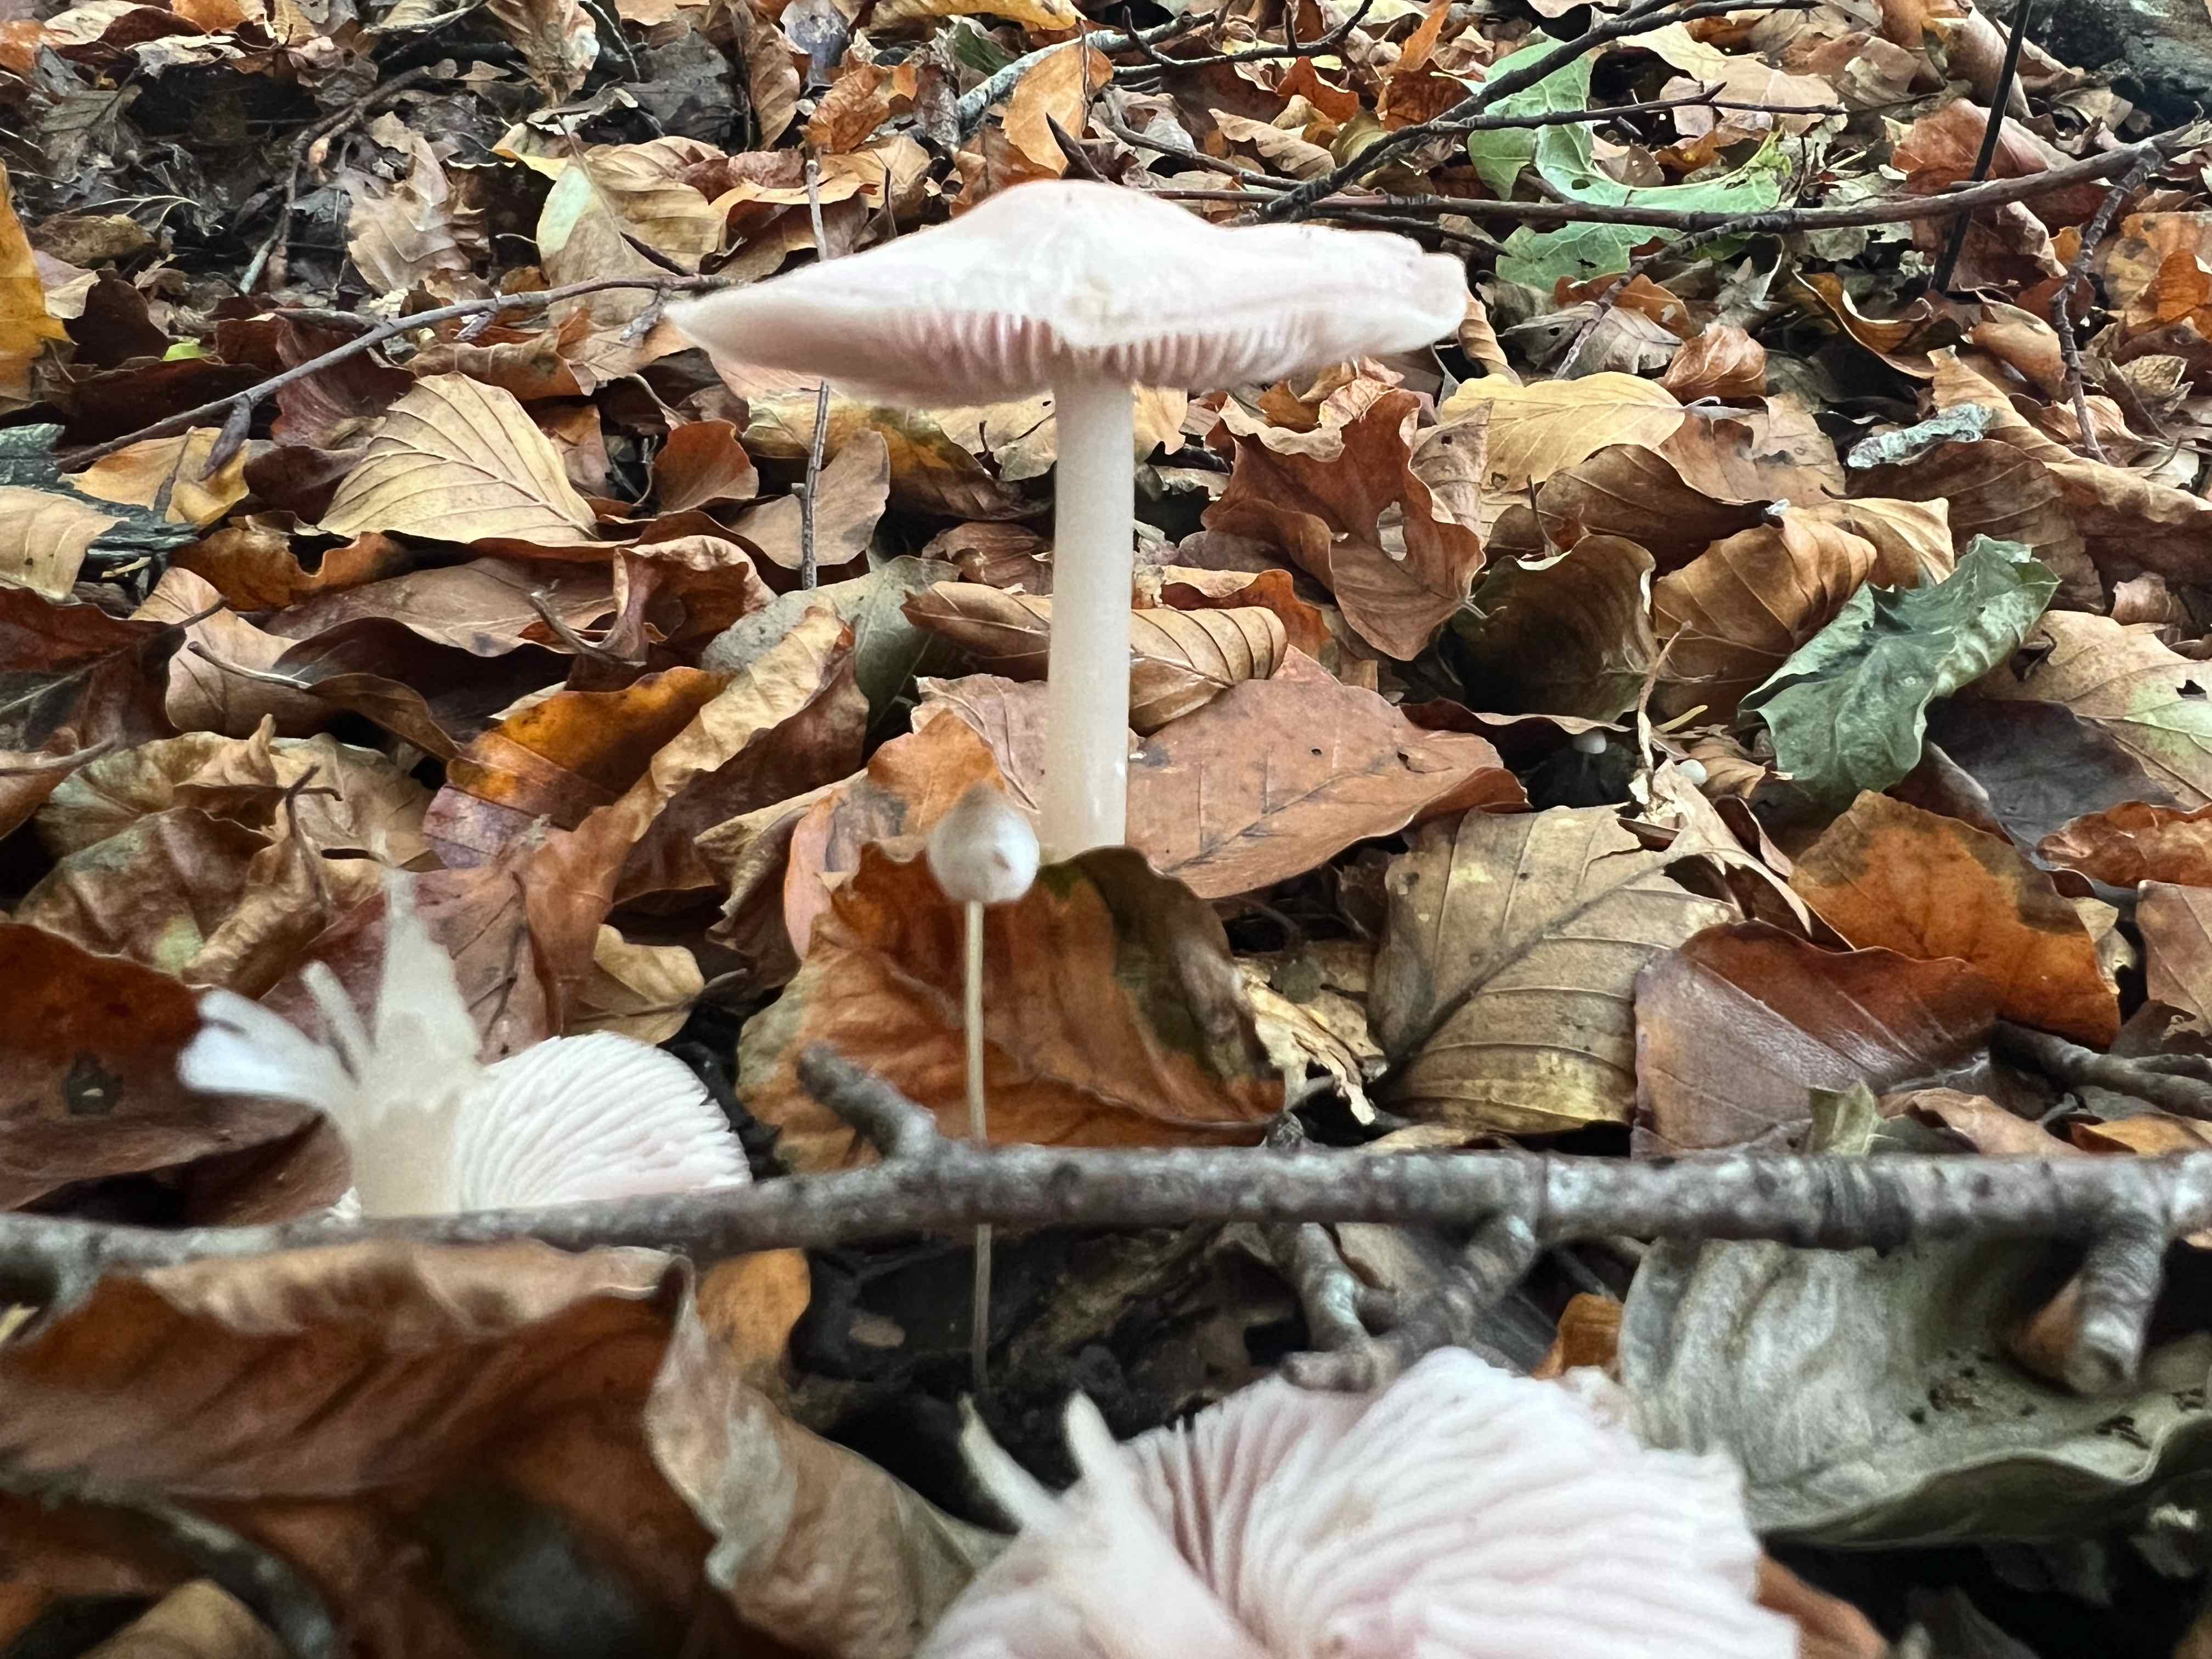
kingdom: Fungi
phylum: Basidiomycota
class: Agaricomycetes
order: Agaricales
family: Mycenaceae
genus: Mycena
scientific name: Mycena rosea
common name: rosa huesvamp
